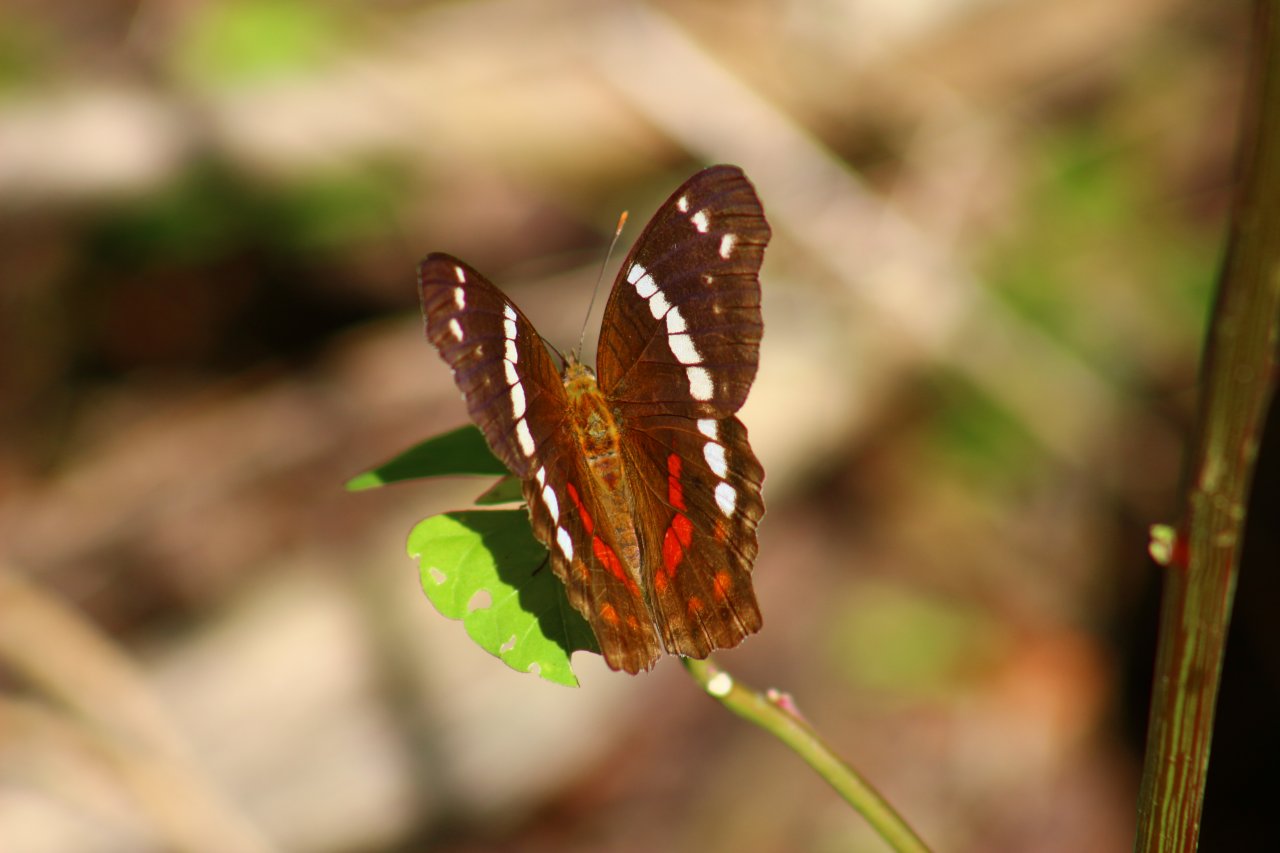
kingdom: Animalia
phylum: Arthropoda
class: Insecta
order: Lepidoptera
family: Nymphalidae
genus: Anartia
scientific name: Anartia fatima
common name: Banded Peacock
